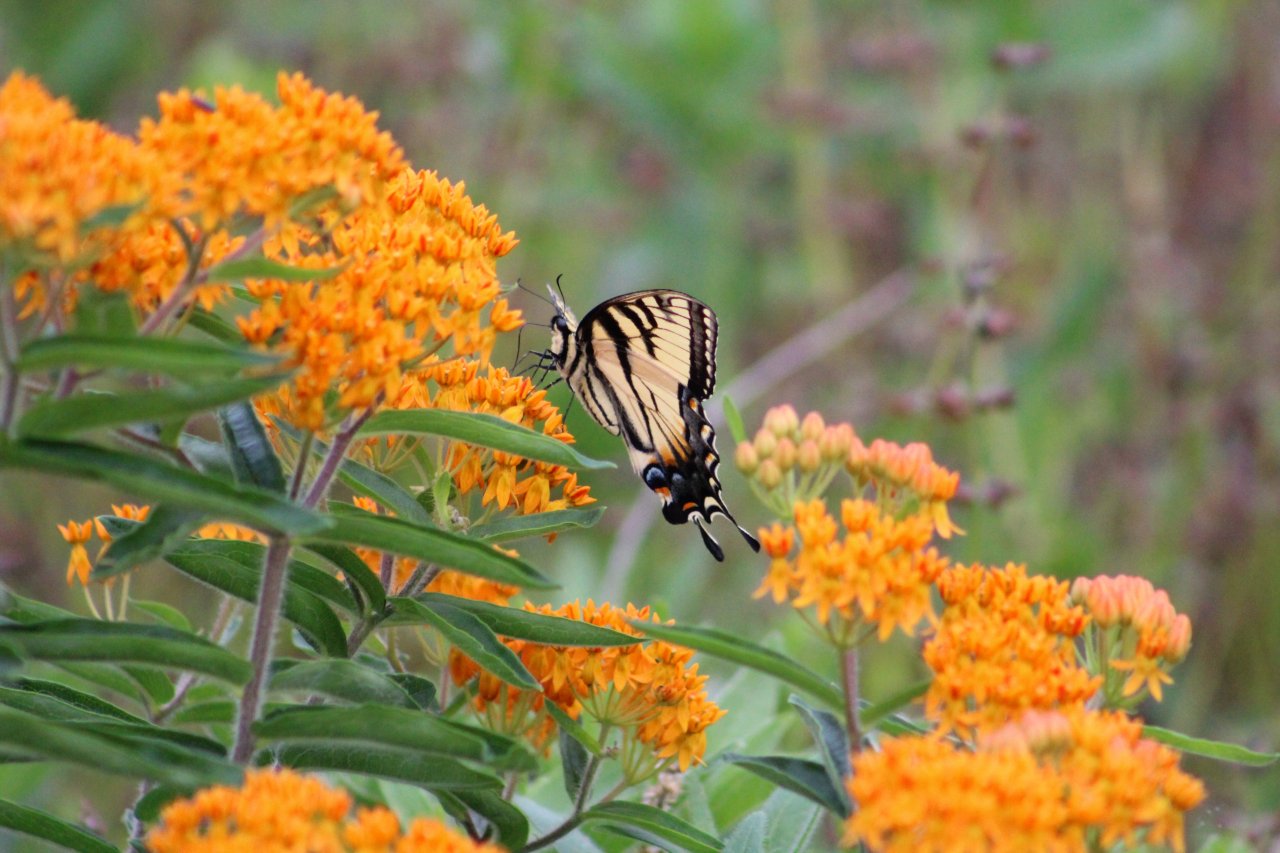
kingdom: Animalia
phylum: Arthropoda
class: Insecta
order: Lepidoptera
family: Papilionidae
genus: Pterourus
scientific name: Pterourus glaucus
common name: Eastern Tiger Swallowtail
